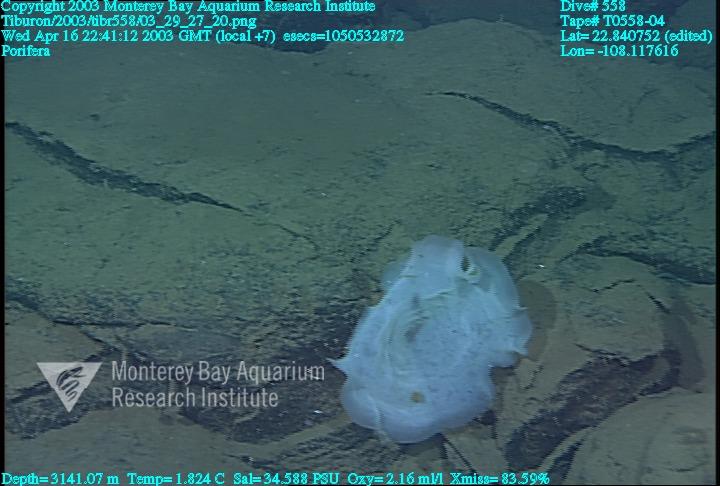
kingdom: Animalia
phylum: Porifera
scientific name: Porifera
